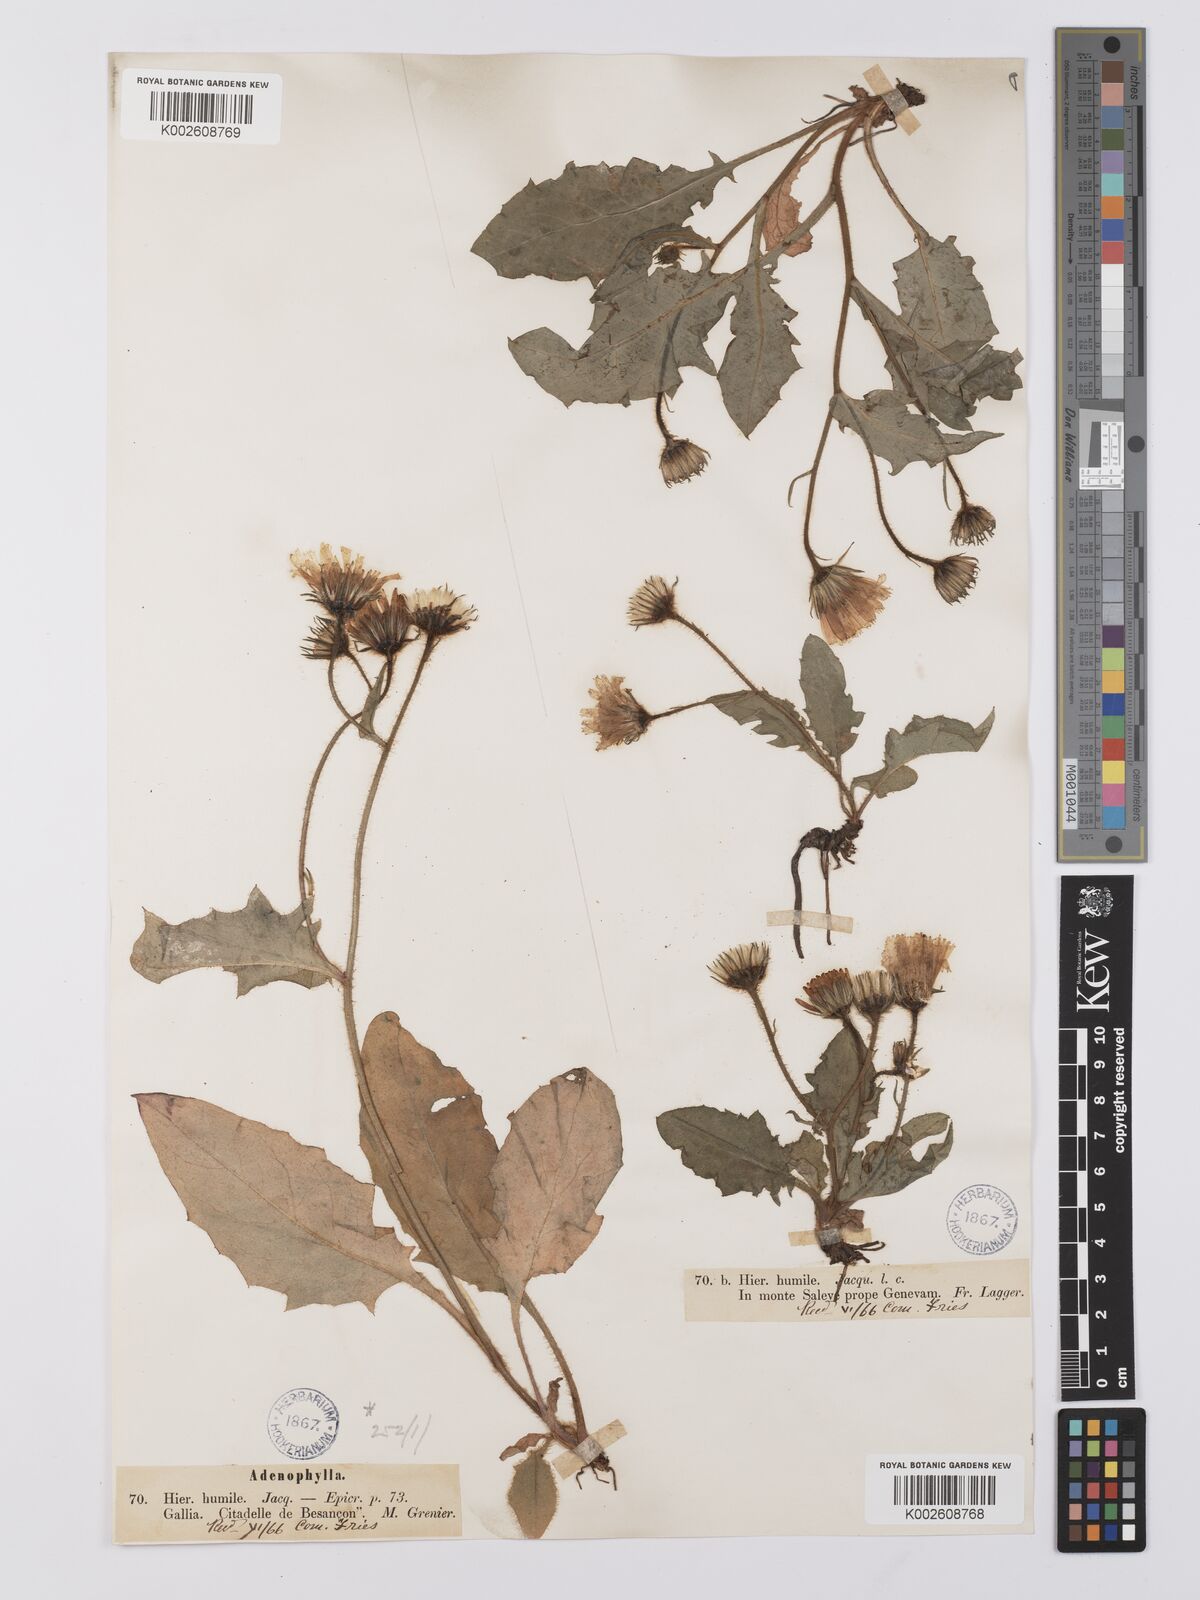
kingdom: Plantae
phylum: Tracheophyta
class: Magnoliopsida
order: Asterales
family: Asteraceae
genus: Hieracium
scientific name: Hieracium humile
